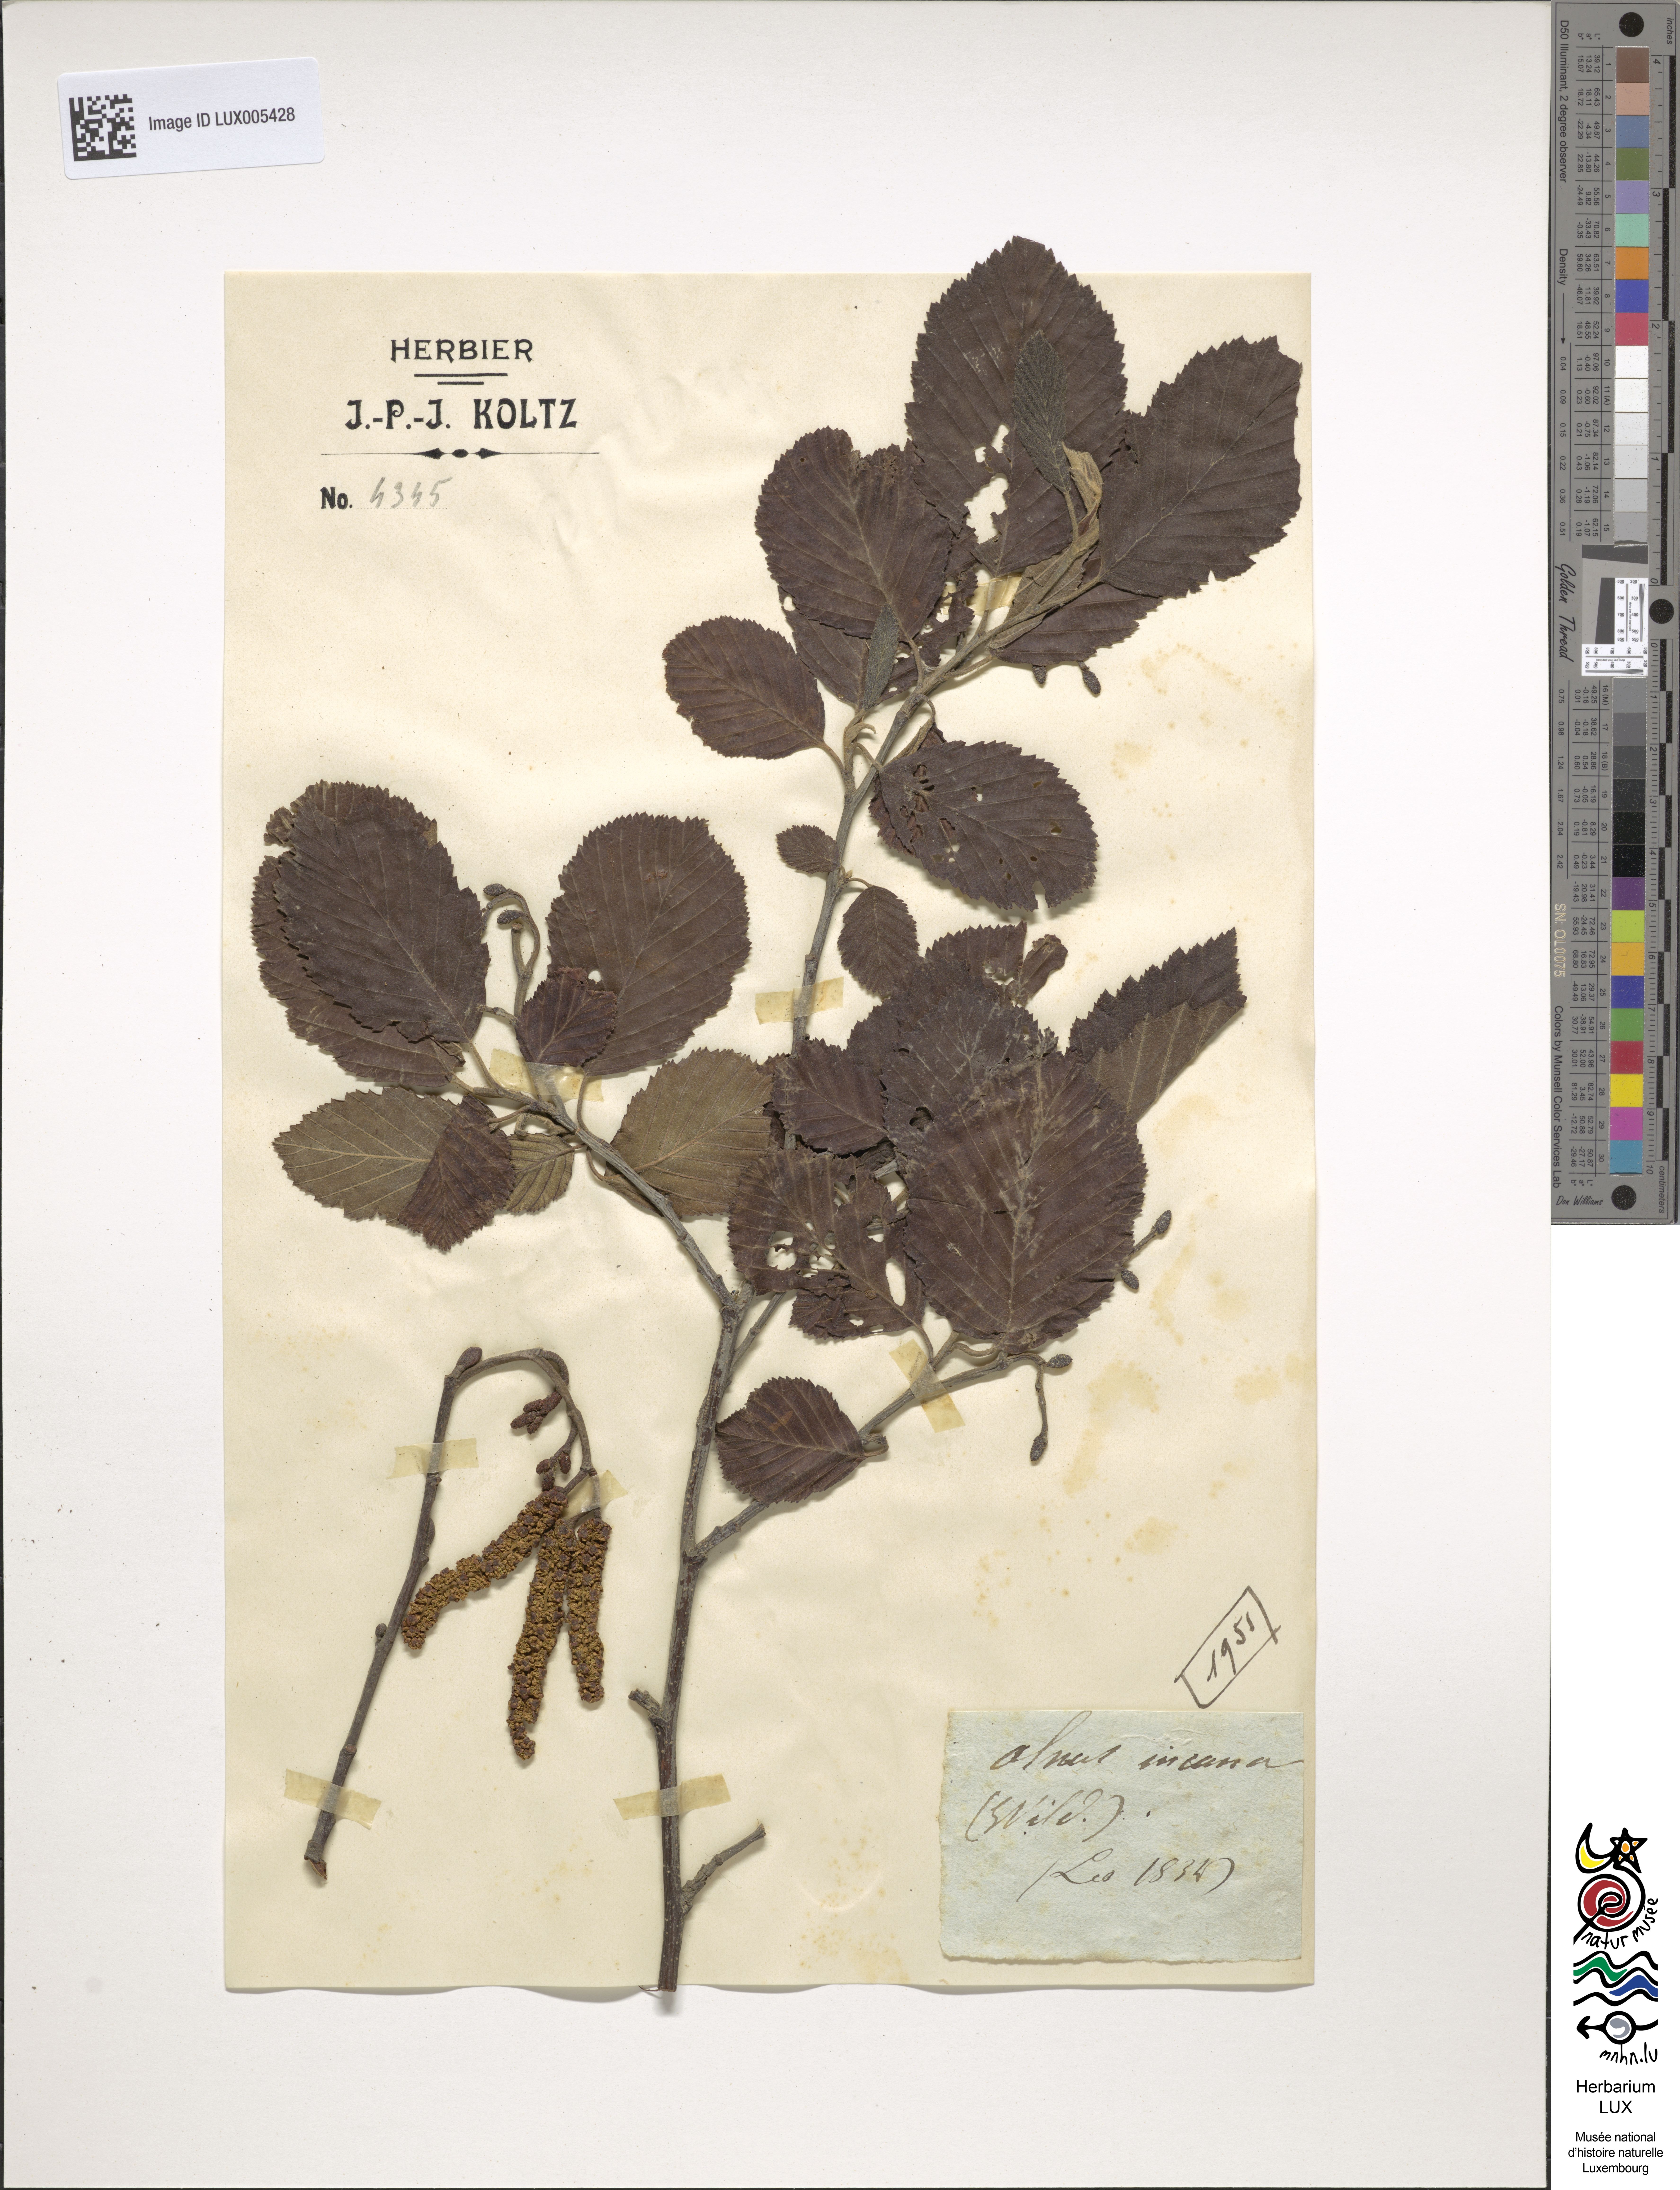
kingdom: Plantae
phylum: Tracheophyta
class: Magnoliopsida
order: Fagales
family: Betulaceae
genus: Alnus
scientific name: Alnus incana
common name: Grey alder
